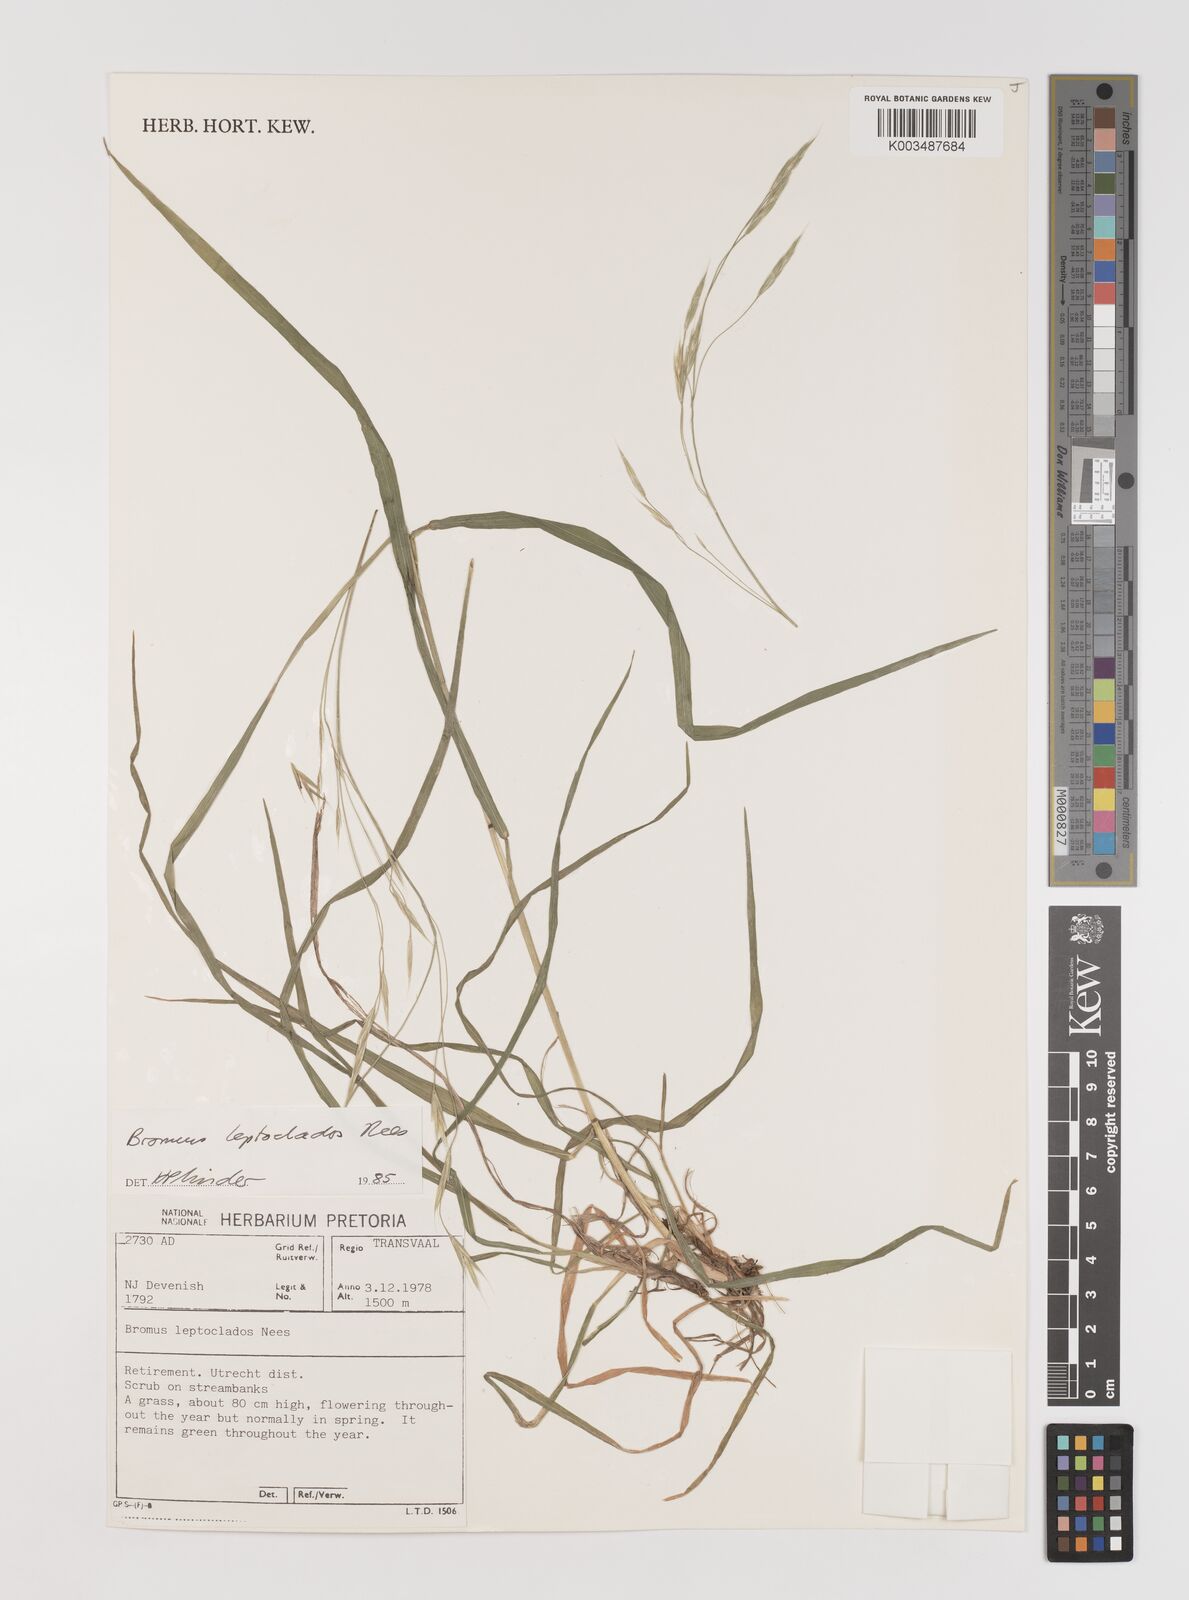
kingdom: Plantae
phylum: Tracheophyta
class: Liliopsida
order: Poales
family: Poaceae
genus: Bromus
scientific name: Bromus leptoclados
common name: Mountain bromegrass
